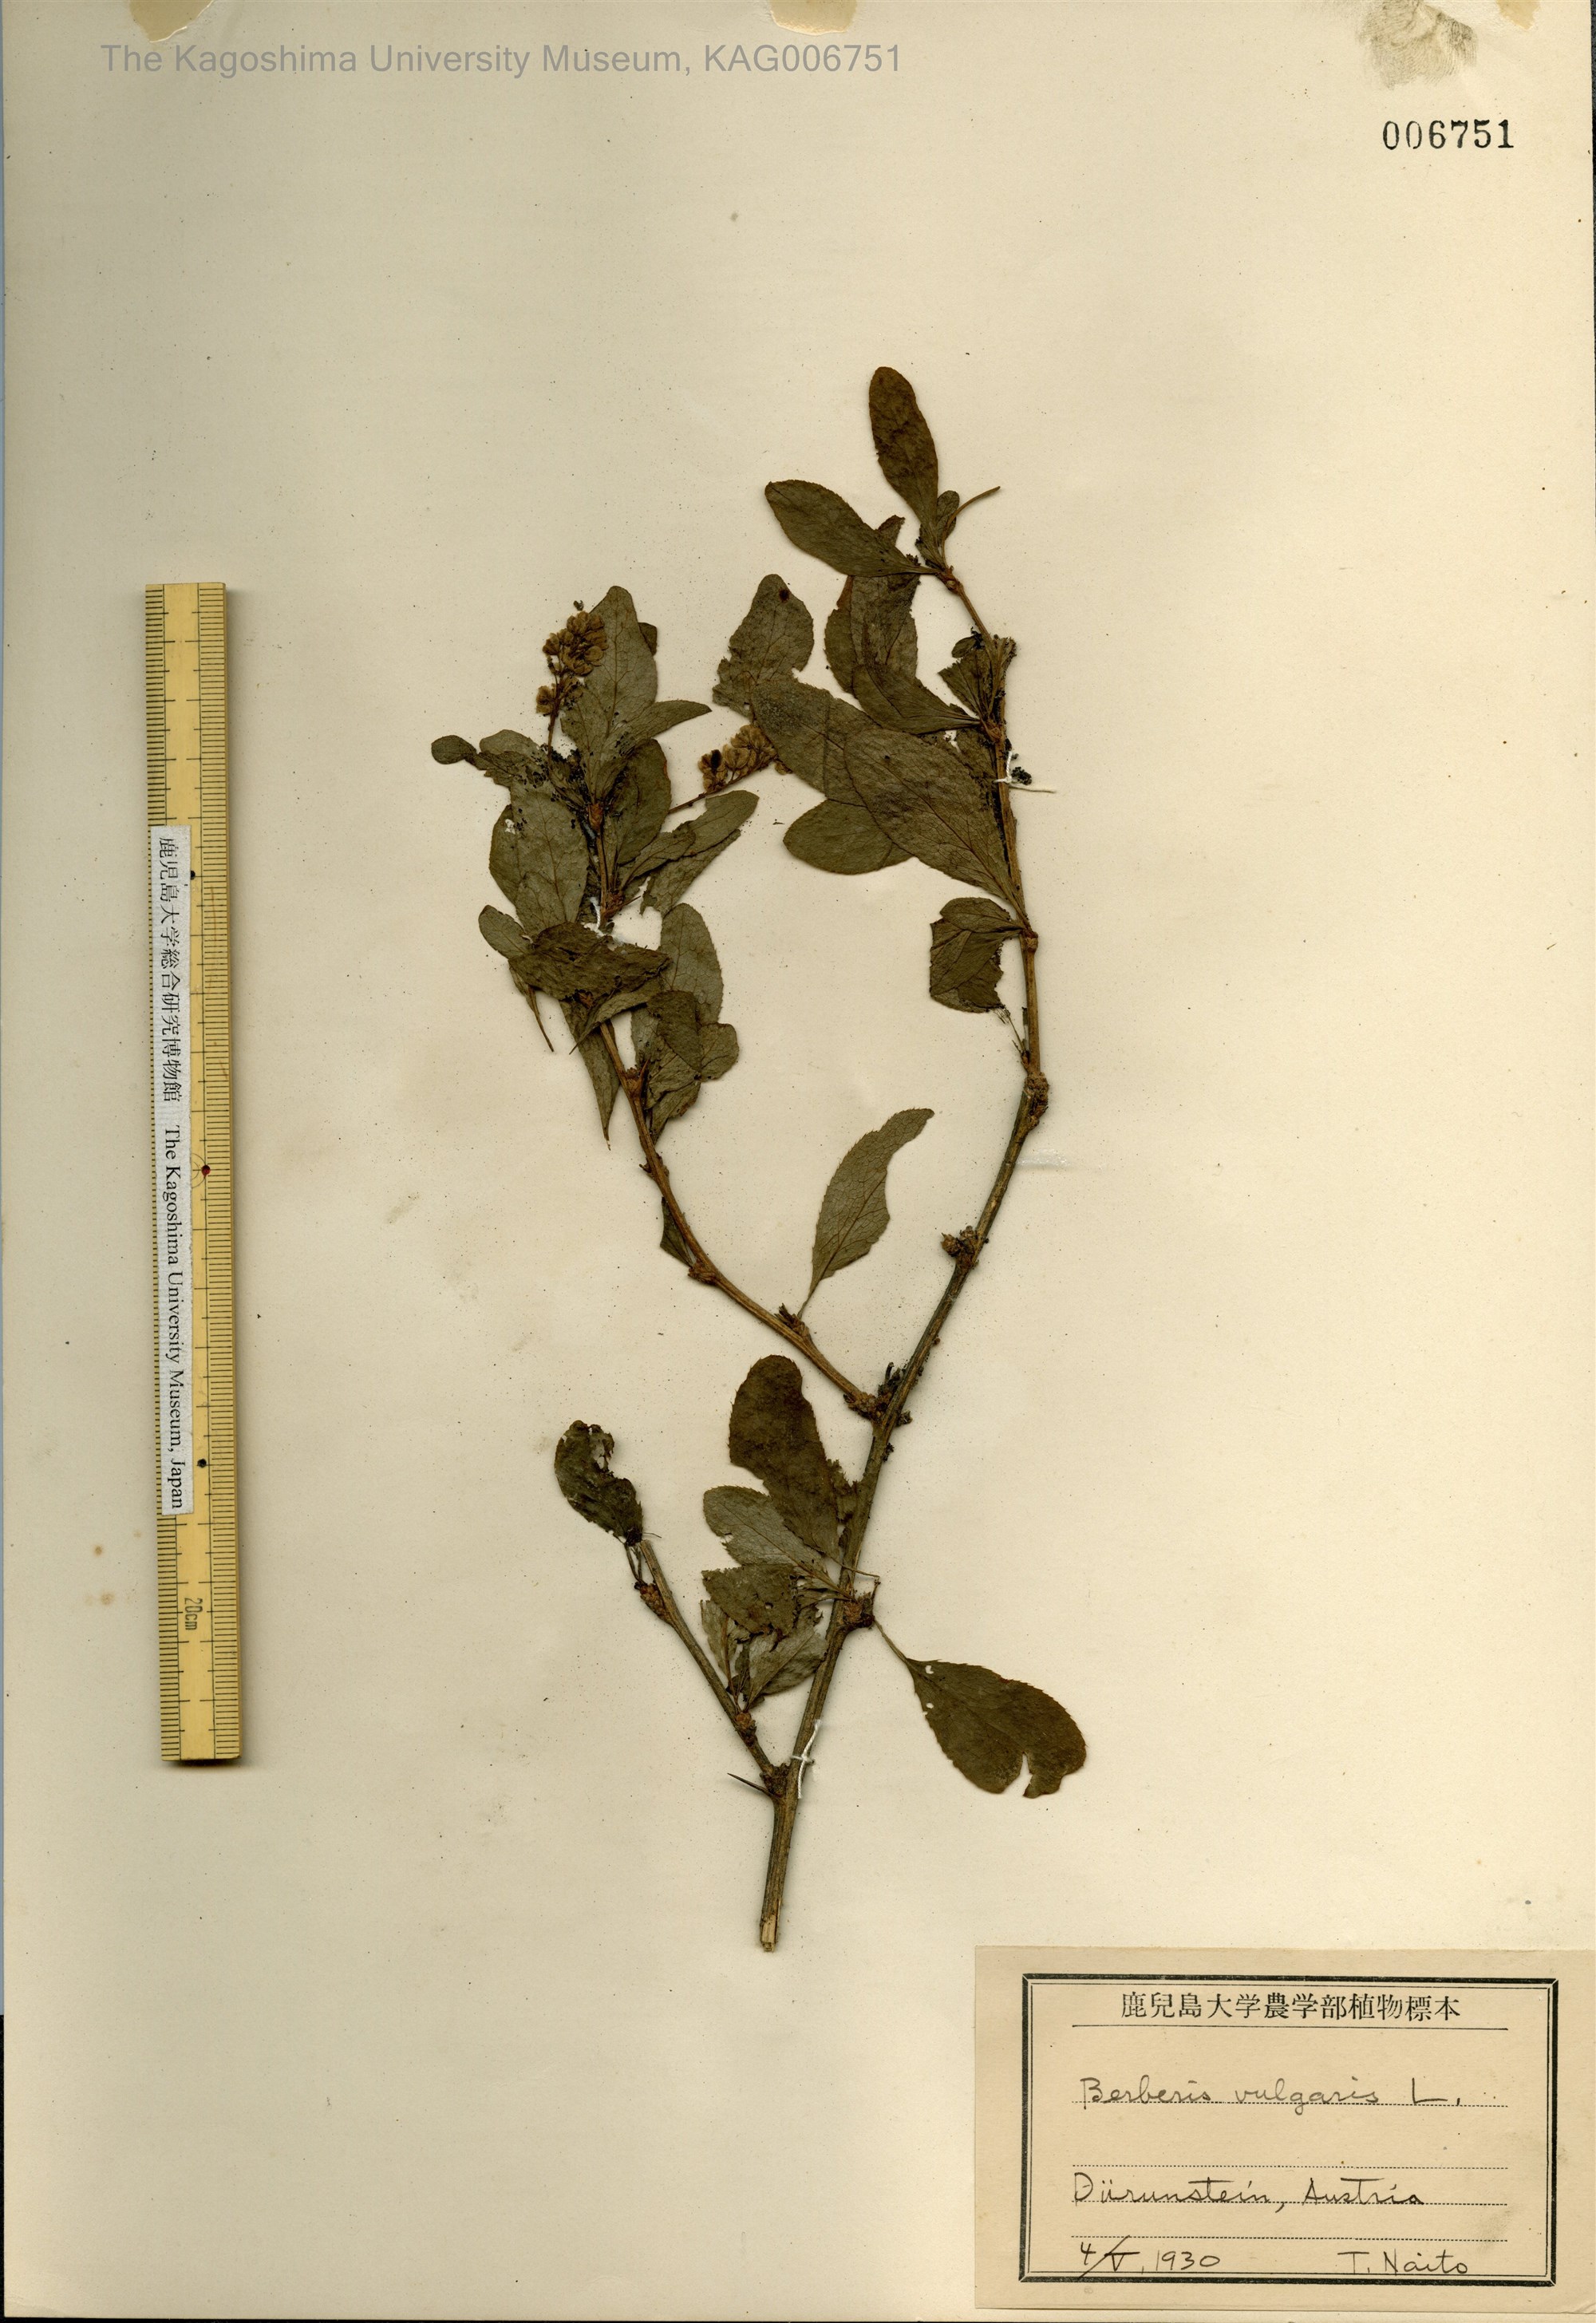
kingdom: Plantae
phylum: Tracheophyta
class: Magnoliopsida
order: Ranunculales
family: Berberidaceae
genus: Berberis
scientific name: Berberis vulgaris
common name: Barberry
